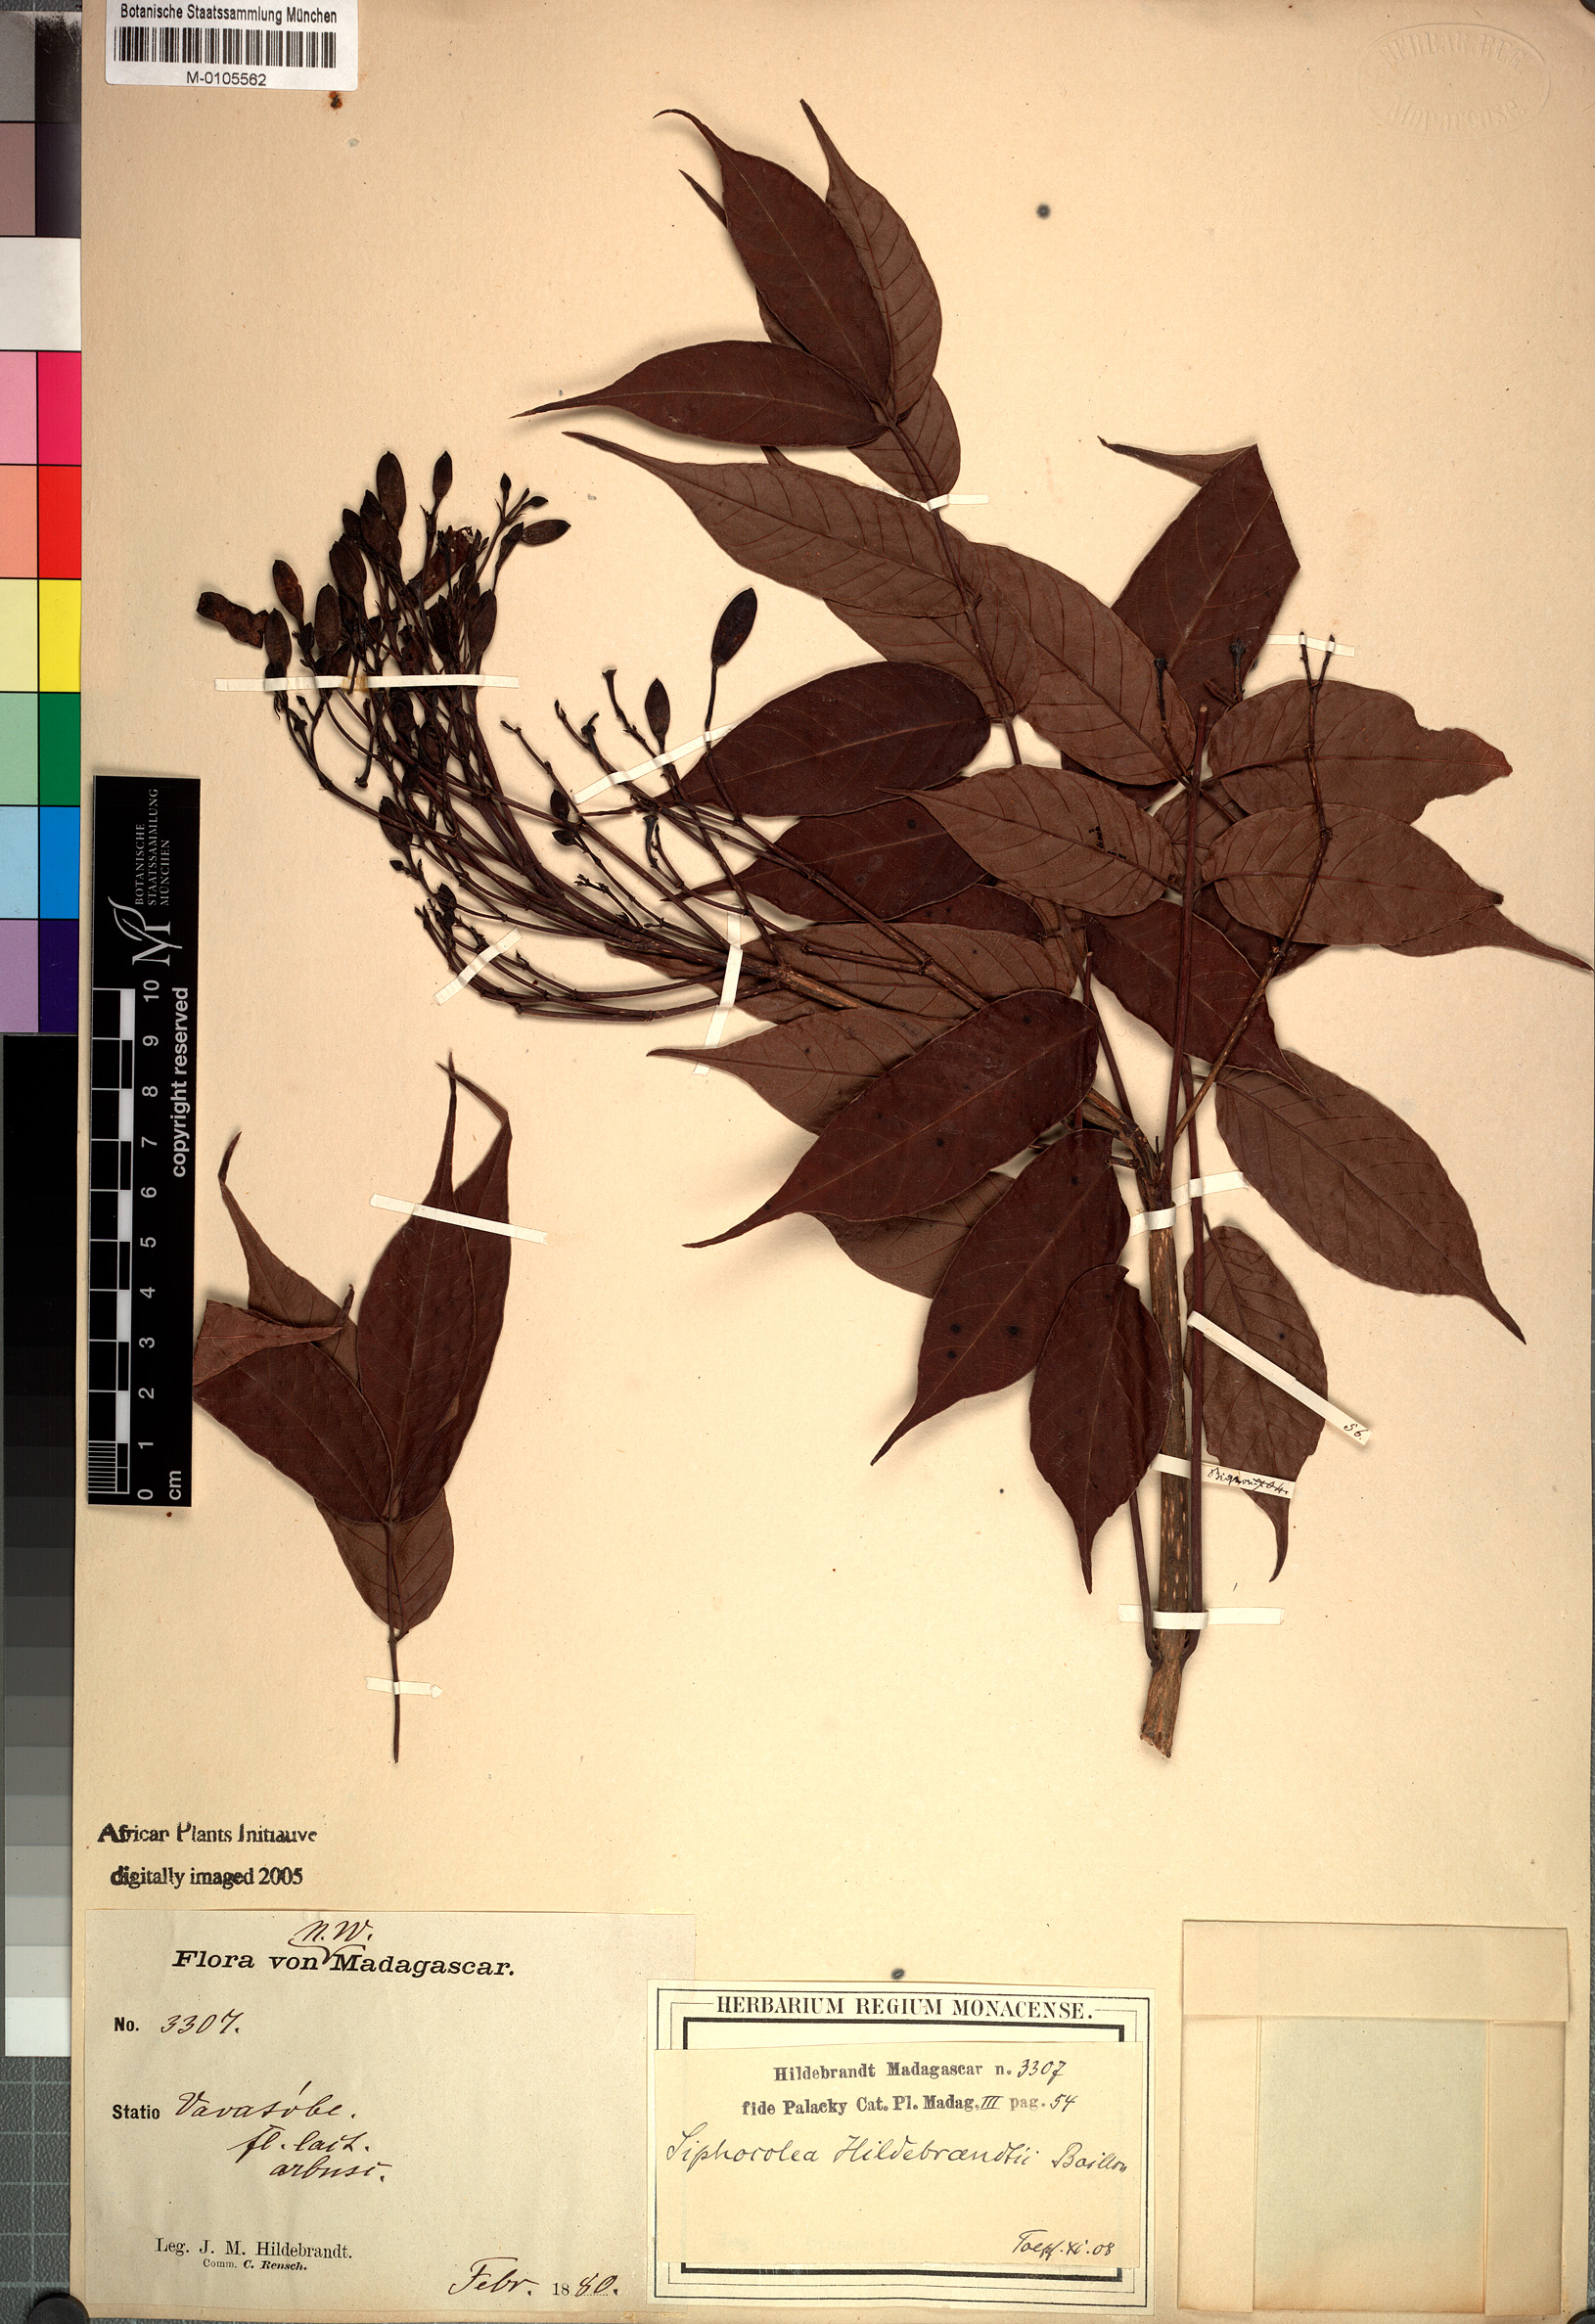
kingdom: Plantae
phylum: Tracheophyta
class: Magnoliopsida
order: Lamiales
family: Bignoniaceae
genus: Stereospermum
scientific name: Stereospermum hildebrandtii
